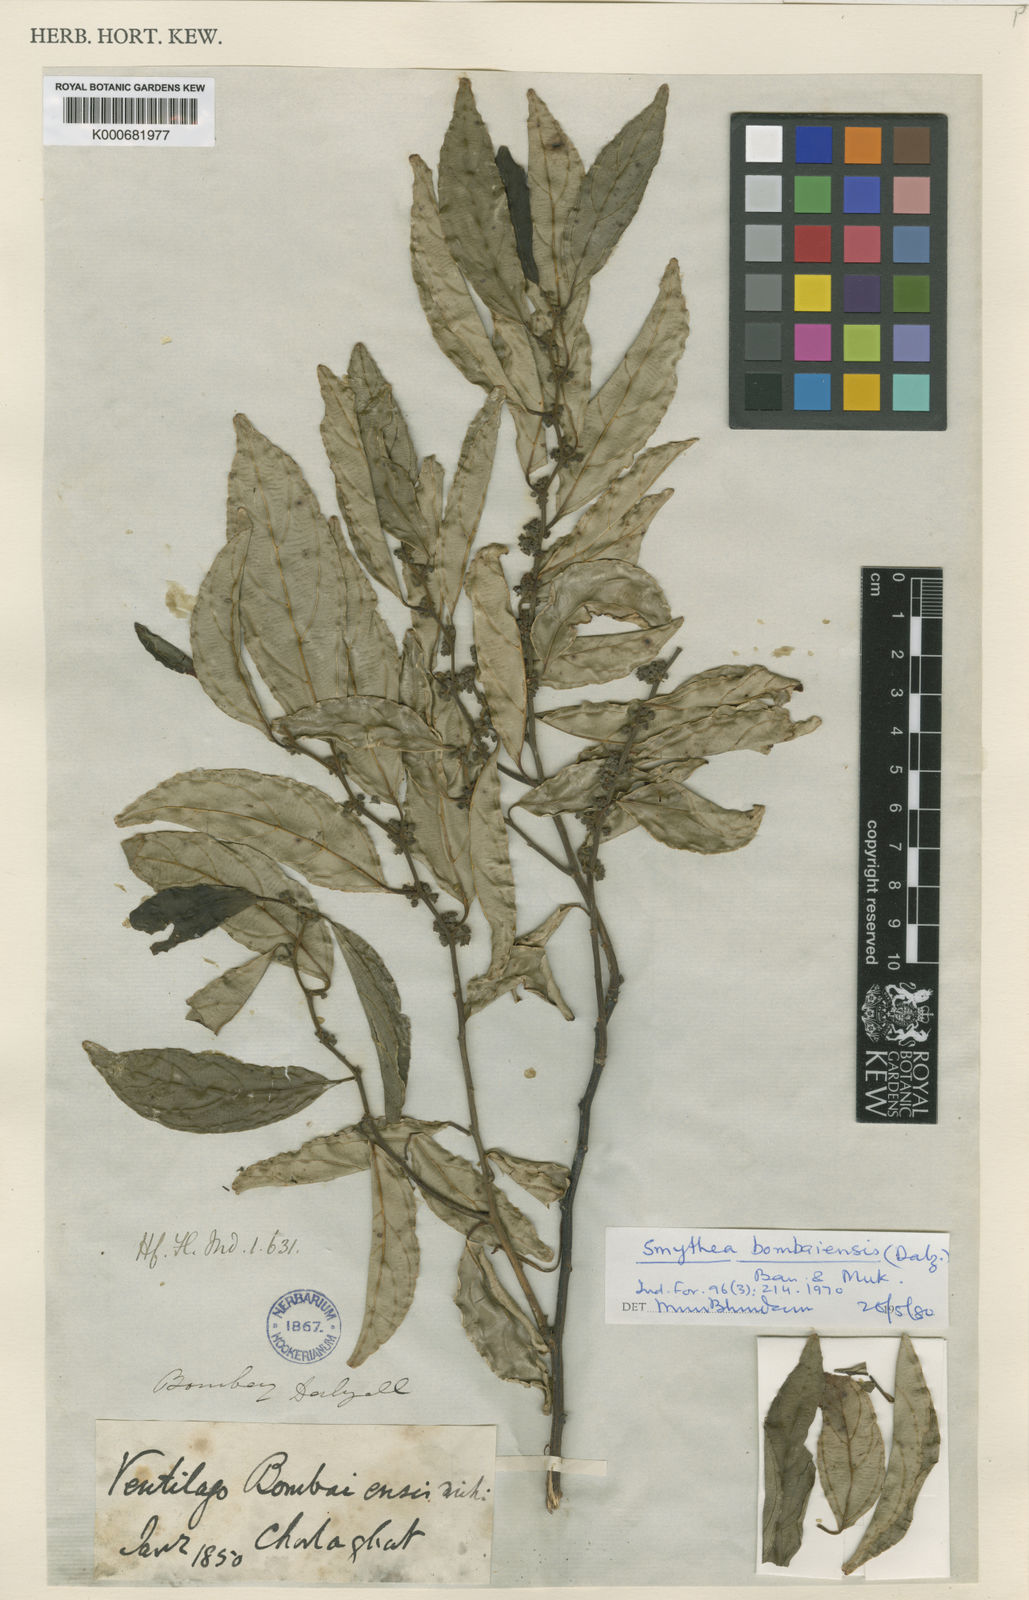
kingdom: Plantae
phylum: Tracheophyta
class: Magnoliopsida
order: Rosales
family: Rhamnaceae
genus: Smythea
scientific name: Smythea bombaiensis
